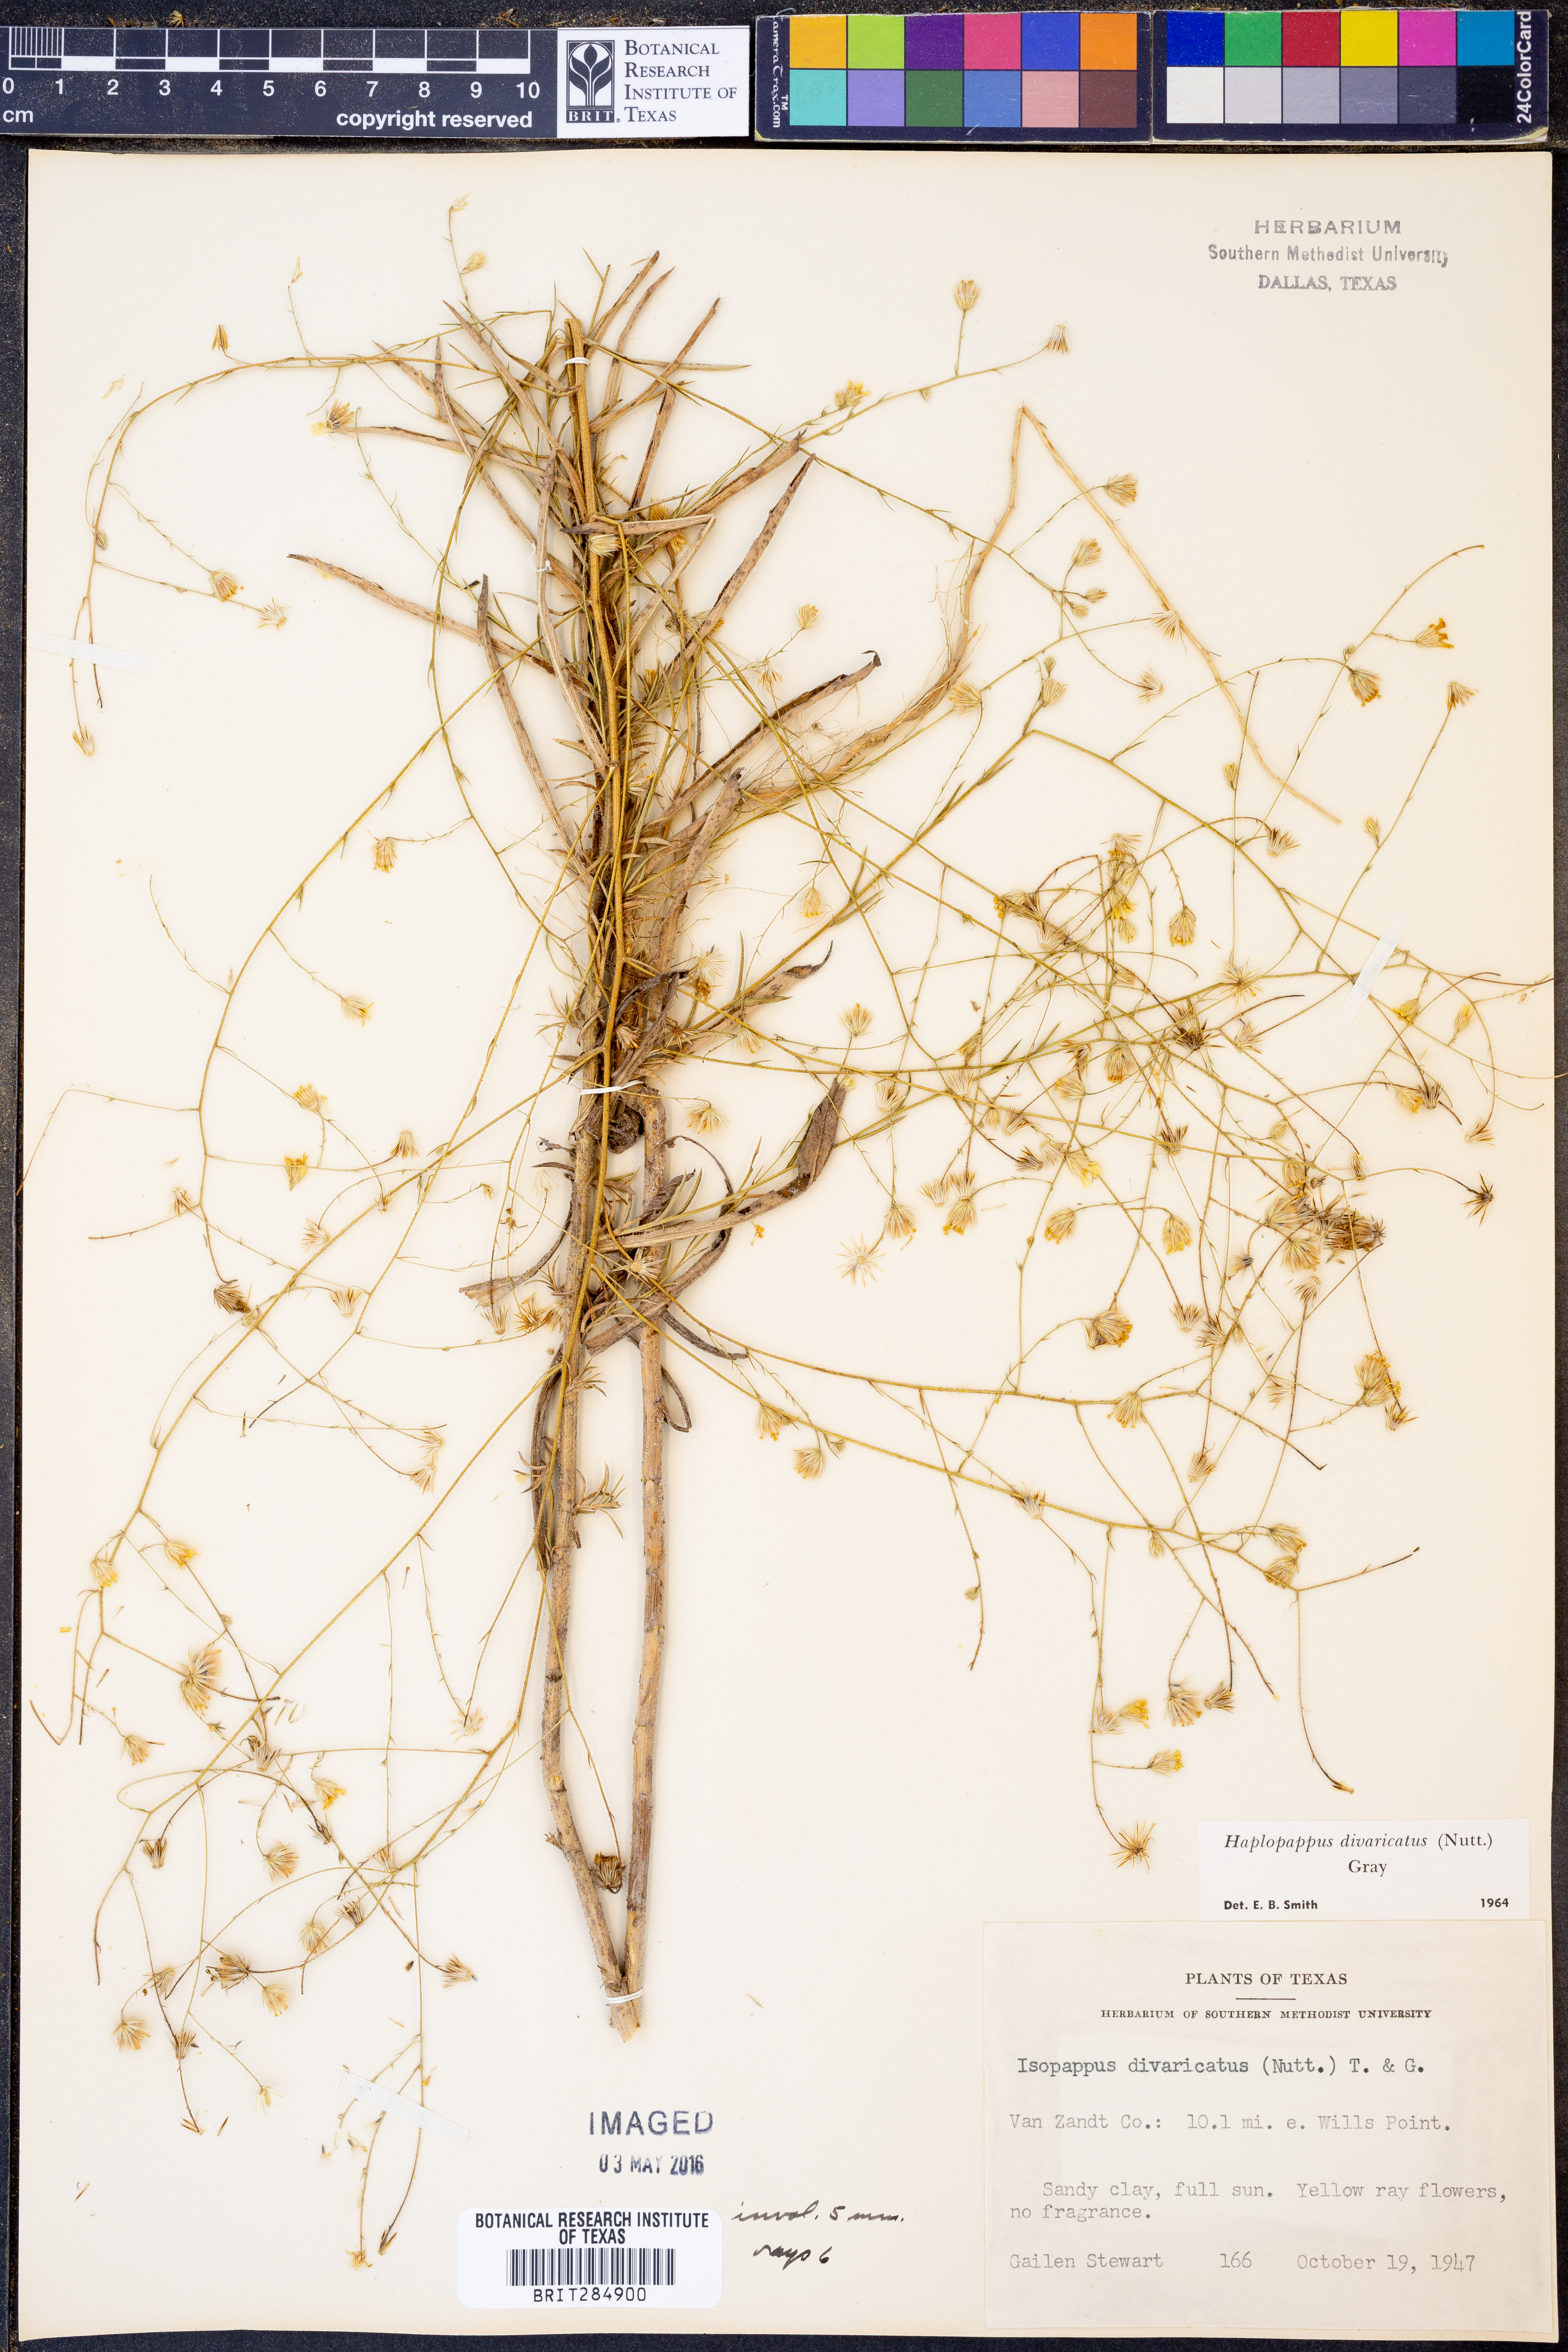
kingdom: Plantae
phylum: Tracheophyta
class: Magnoliopsida
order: Asterales
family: Asteraceae
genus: Croptilon
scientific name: Croptilon divaricatum
